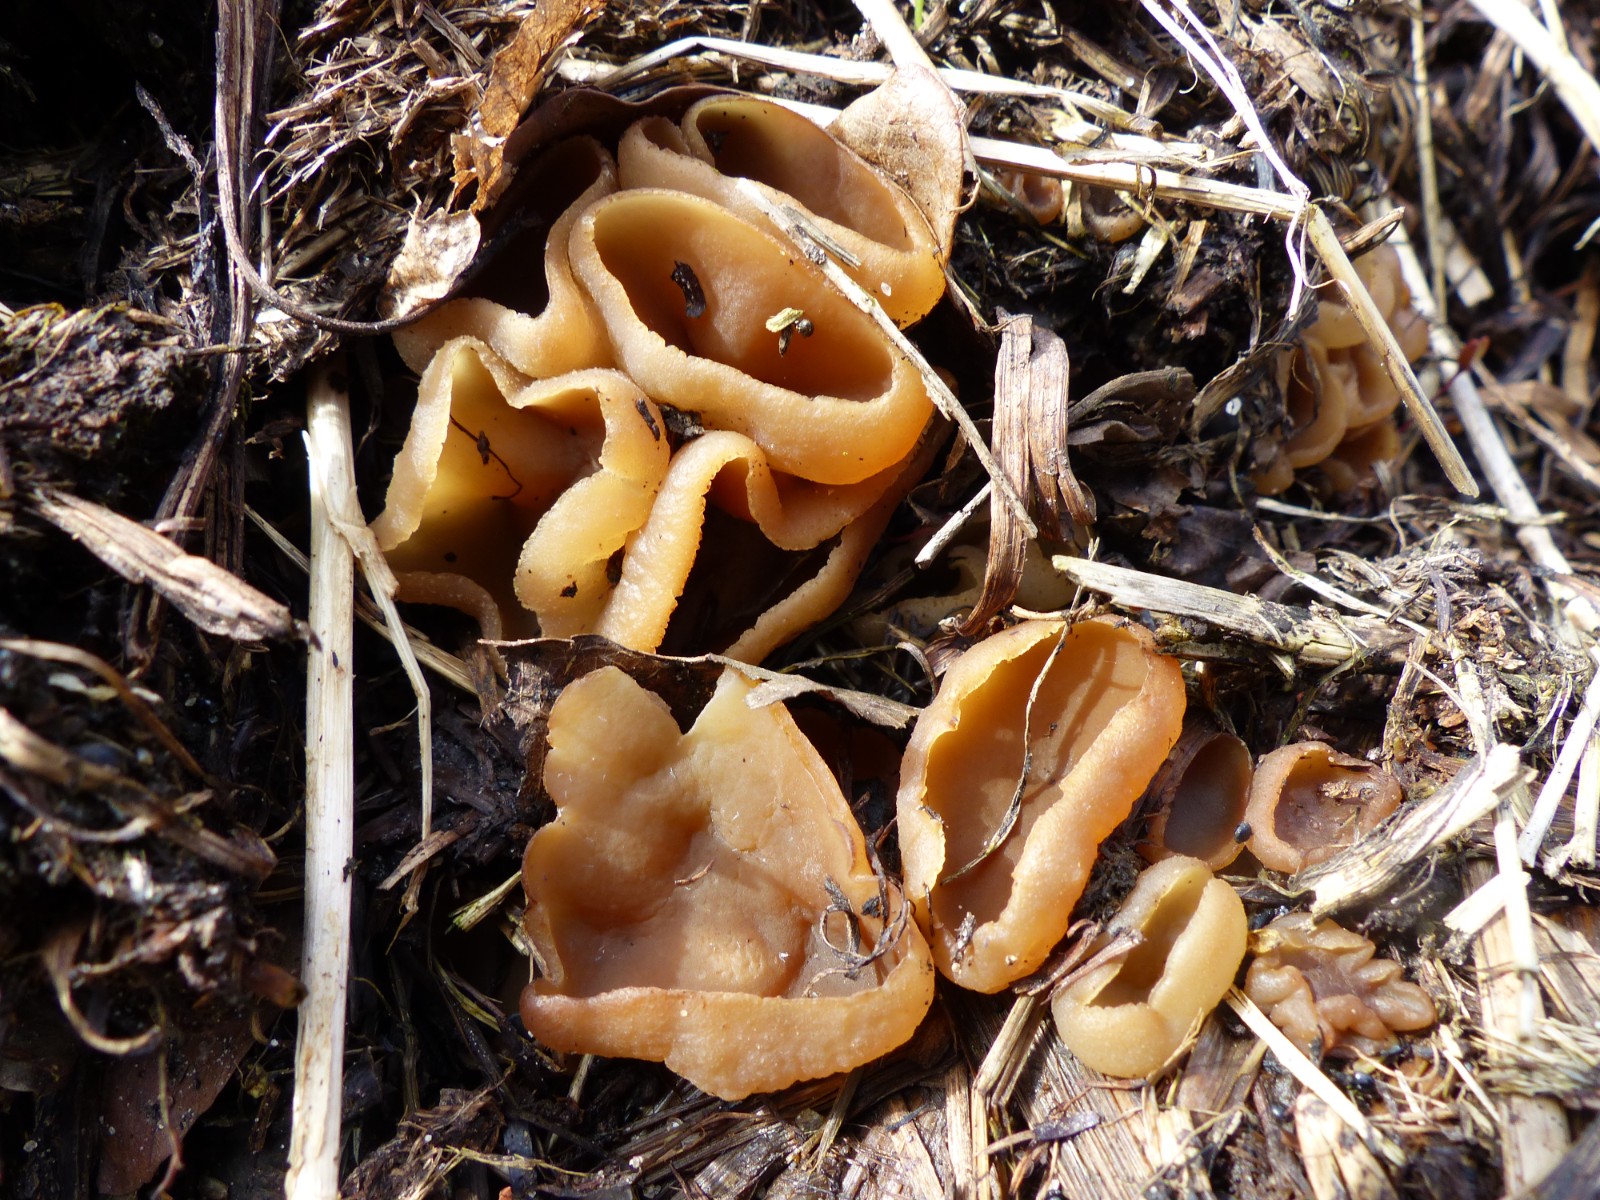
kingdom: Fungi
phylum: Ascomycota
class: Pezizomycetes
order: Pezizales
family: Pezizaceae
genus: Peziza
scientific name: Peziza vesiculosa
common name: blære-bægersvamp
